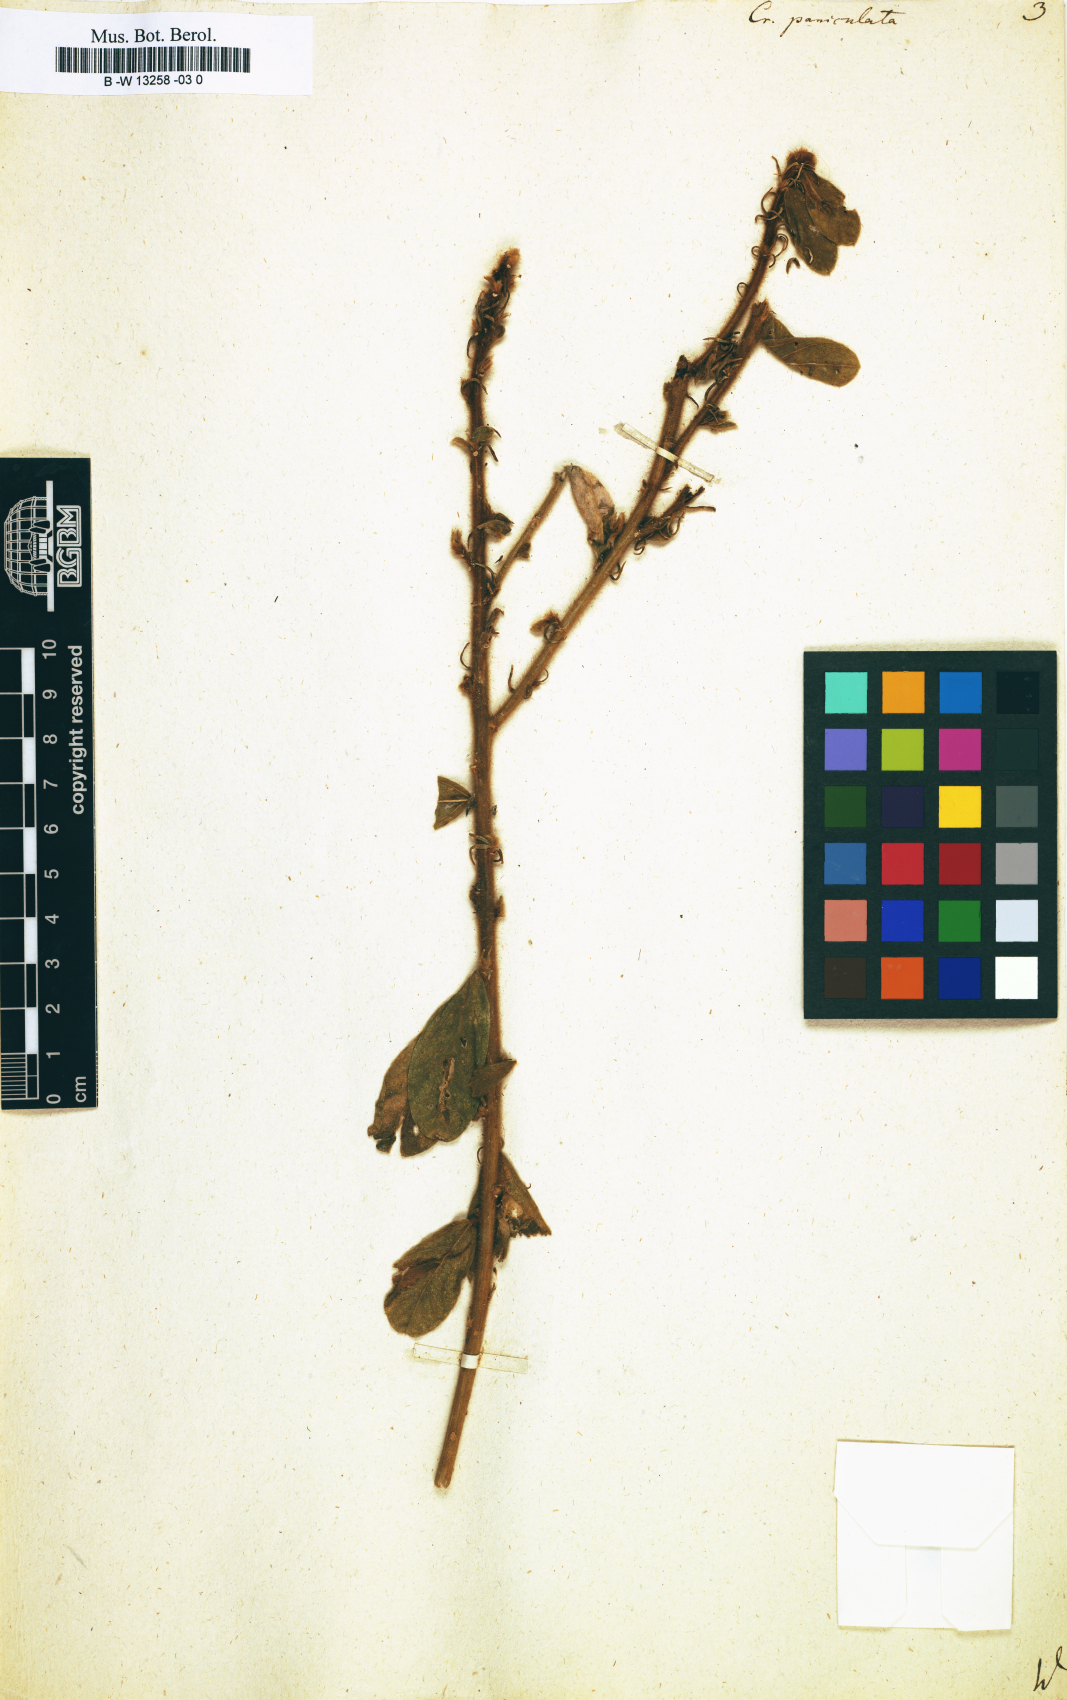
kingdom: Plantae
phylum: Tracheophyta
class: Magnoliopsida
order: Fabales
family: Fabaceae
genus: Crotalaria
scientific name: Crotalaria paniculata
